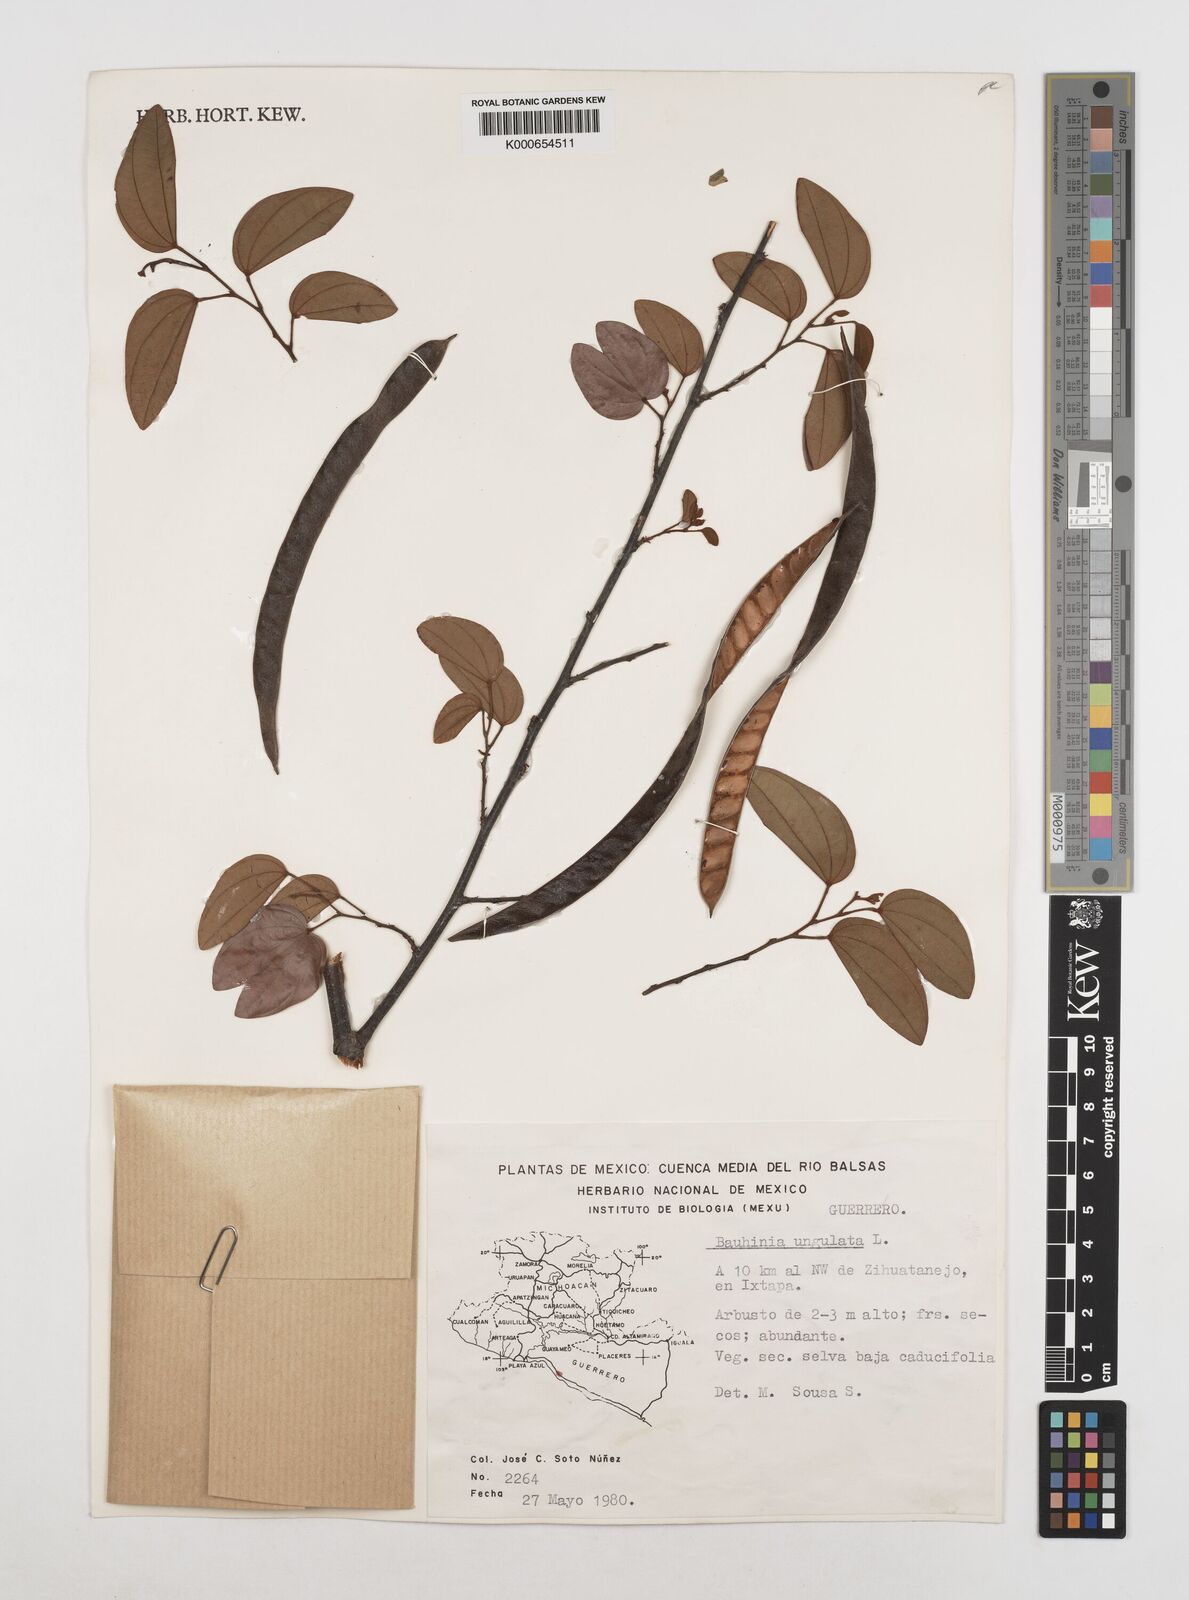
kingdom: Plantae
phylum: Tracheophyta
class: Magnoliopsida
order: Fabales
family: Fabaceae
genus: Bauhinia
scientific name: Bauhinia ungulata
